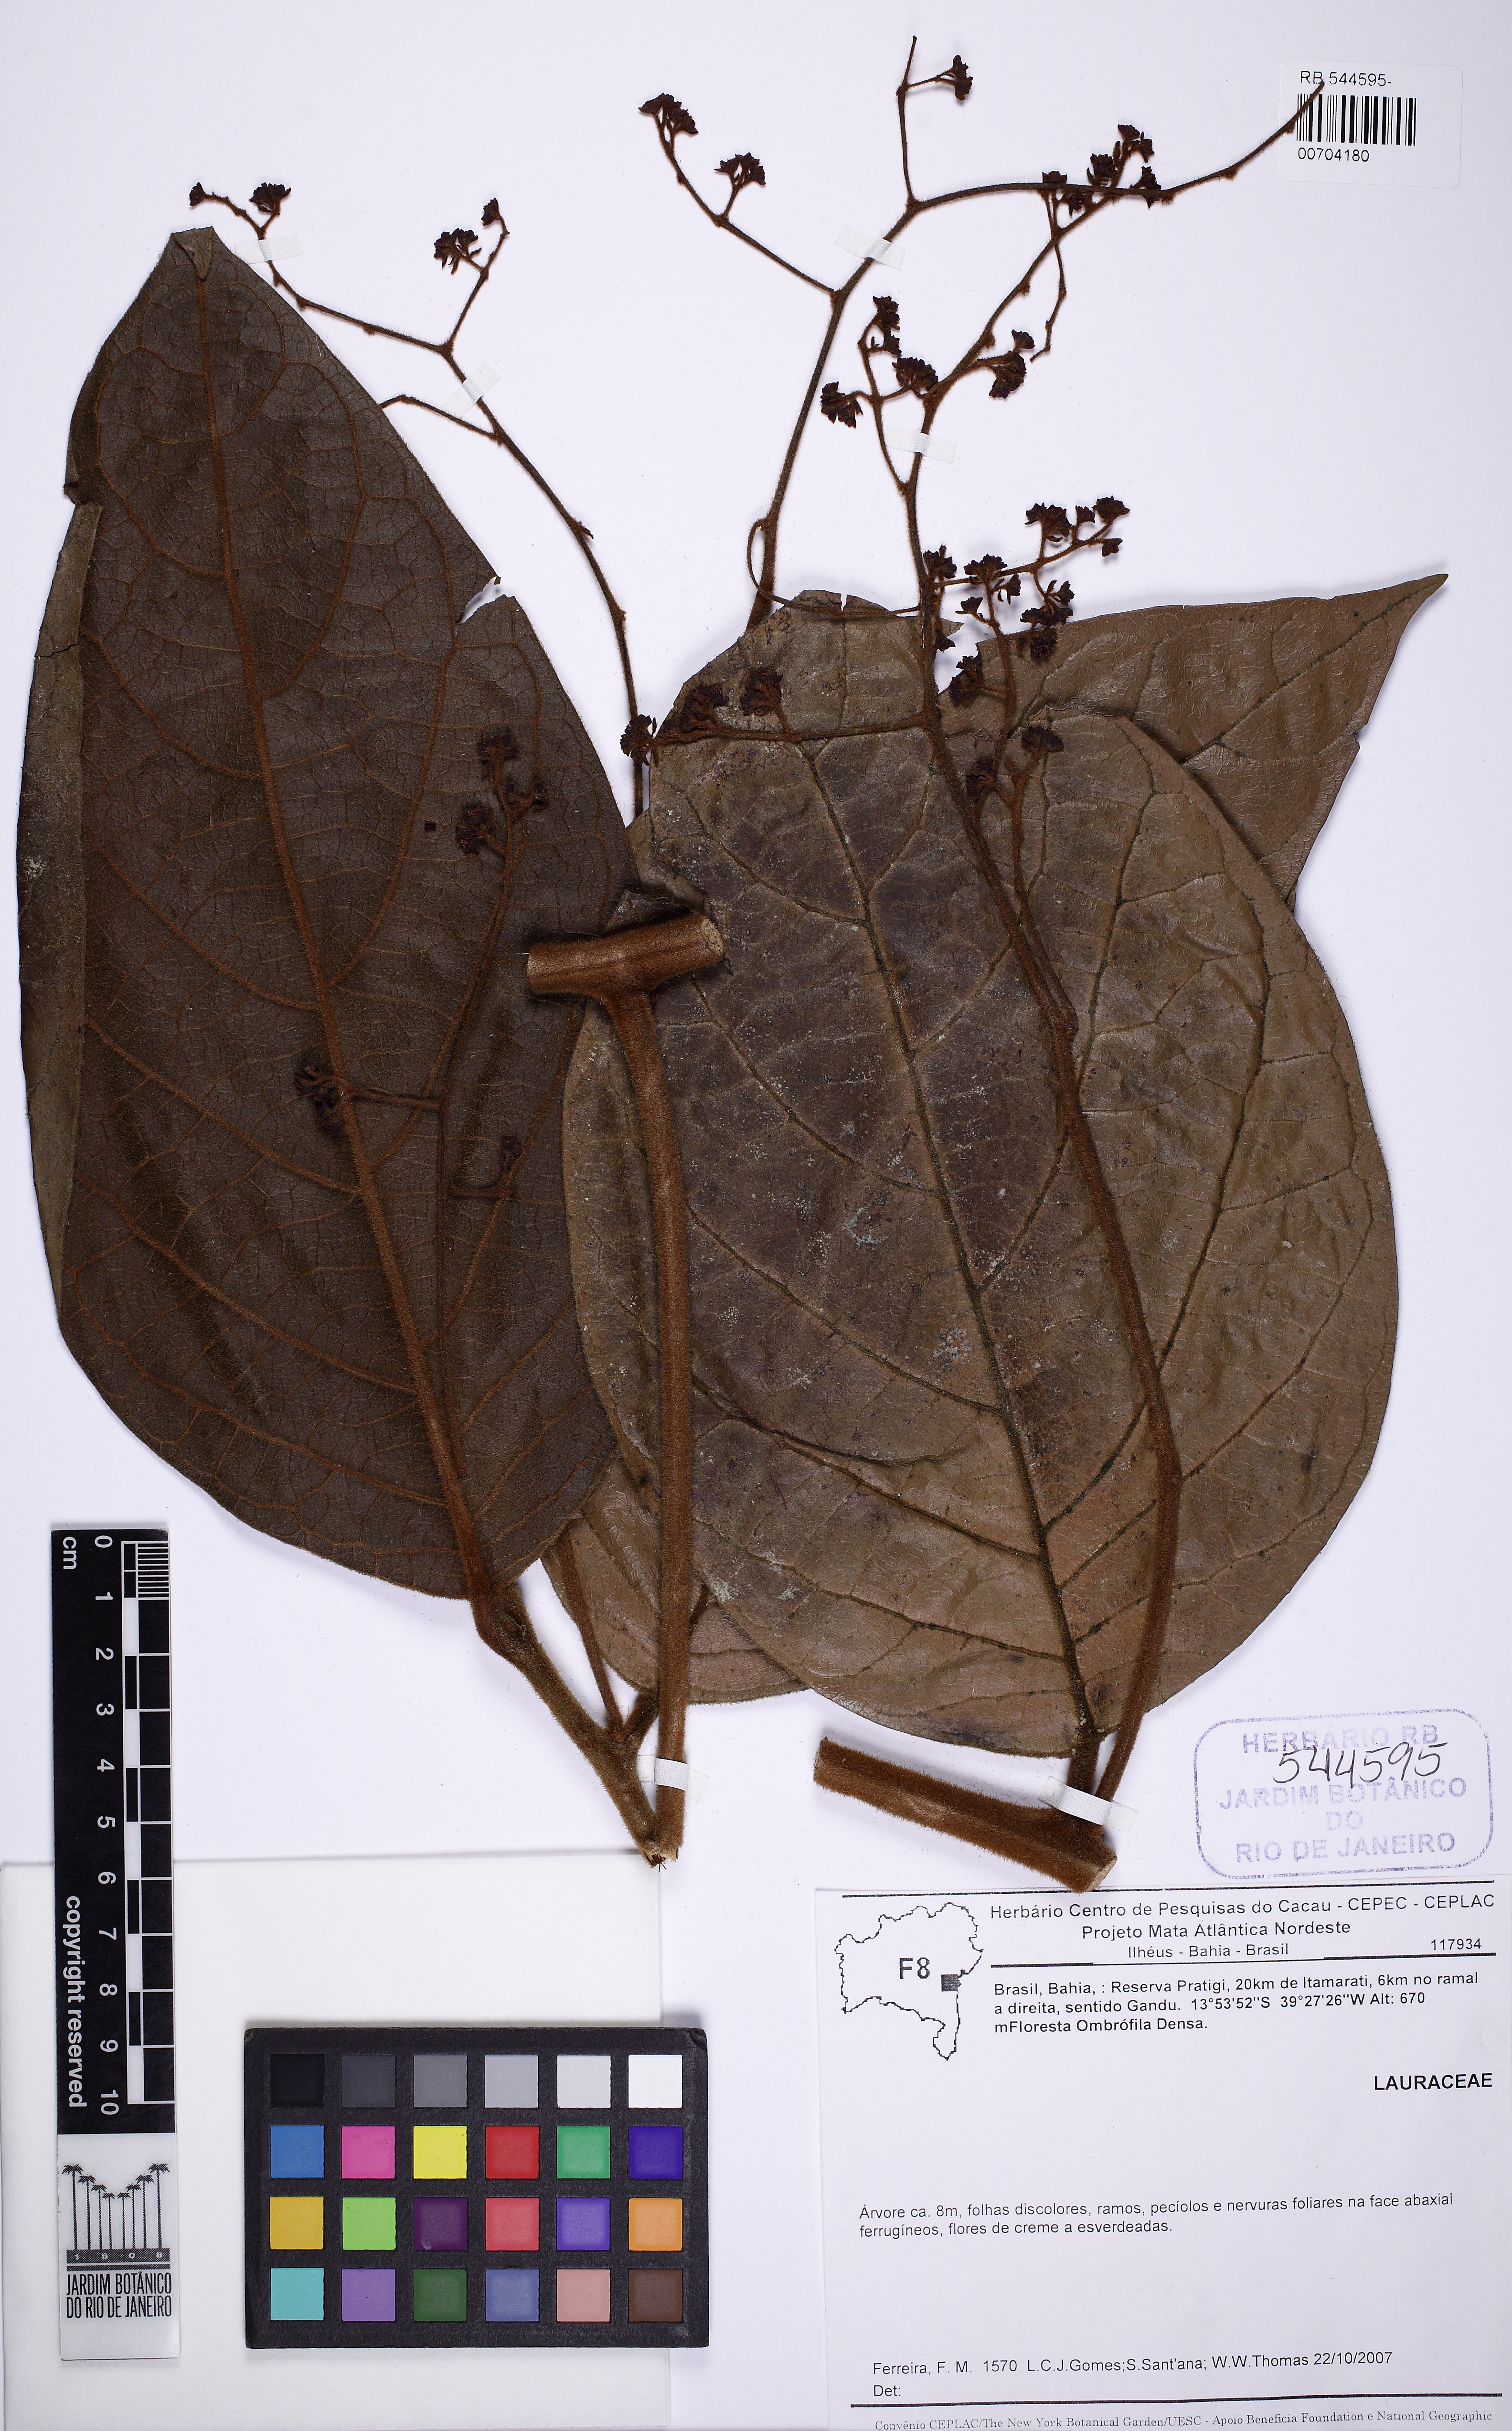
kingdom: Plantae
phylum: Tracheophyta
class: Magnoliopsida
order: Laurales
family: Lauraceae
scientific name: Lauraceae
